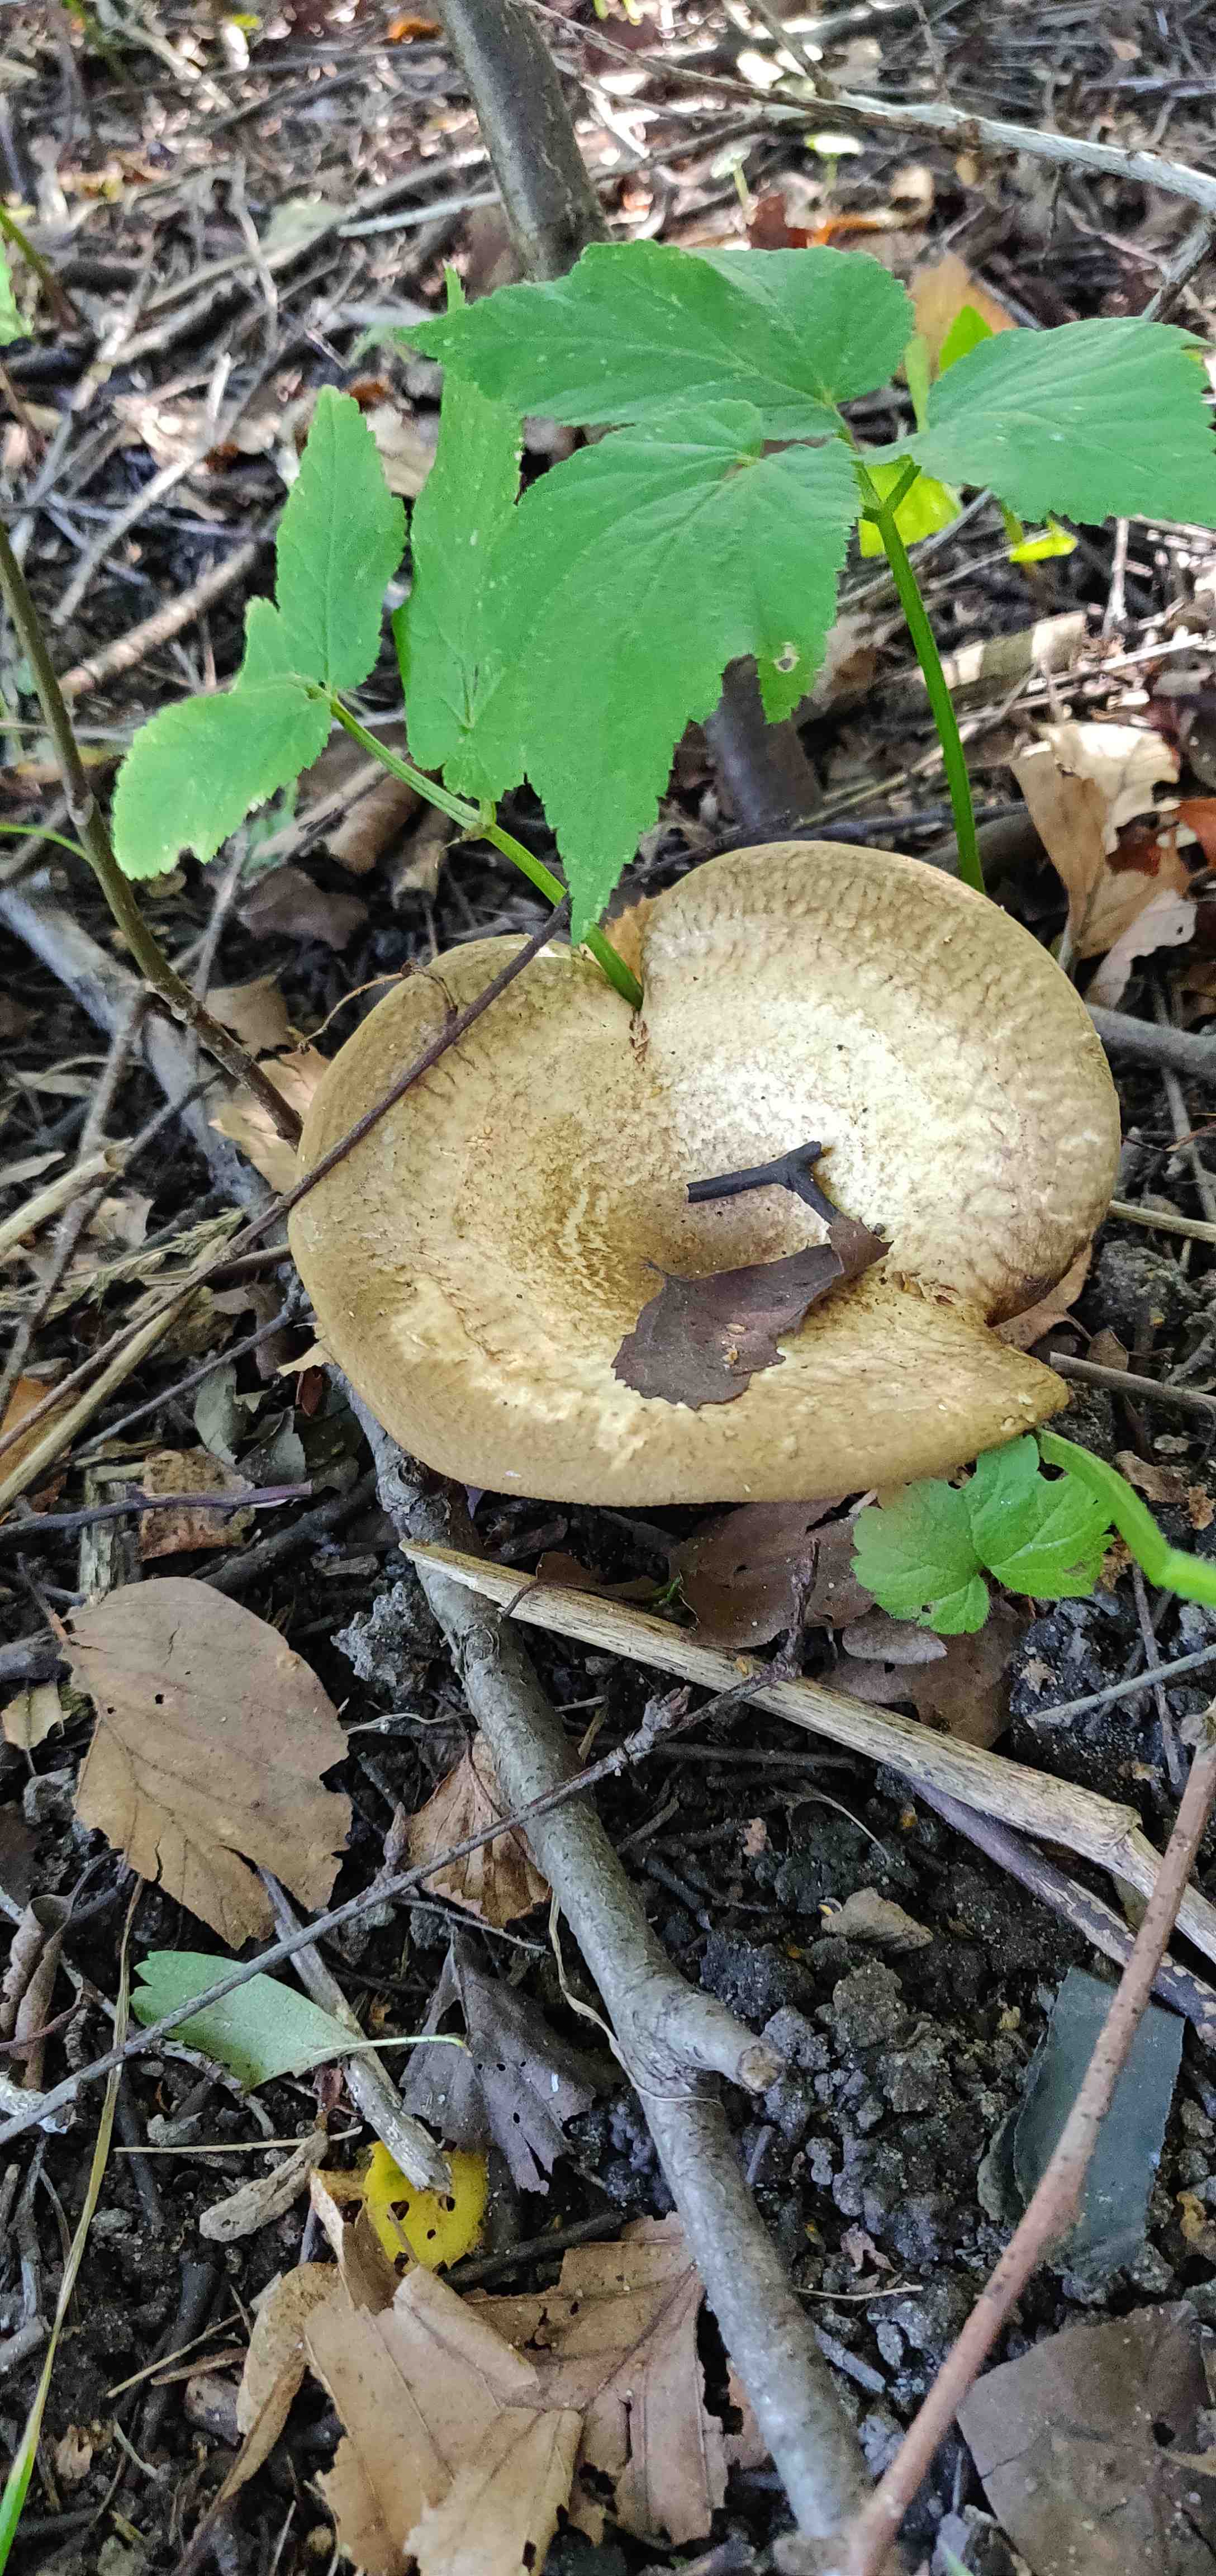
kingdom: Fungi
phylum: Basidiomycota
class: Agaricomycetes
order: Boletales
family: Paxillaceae
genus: Paxillus
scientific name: Paxillus involutus
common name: almindelig netbladhat
